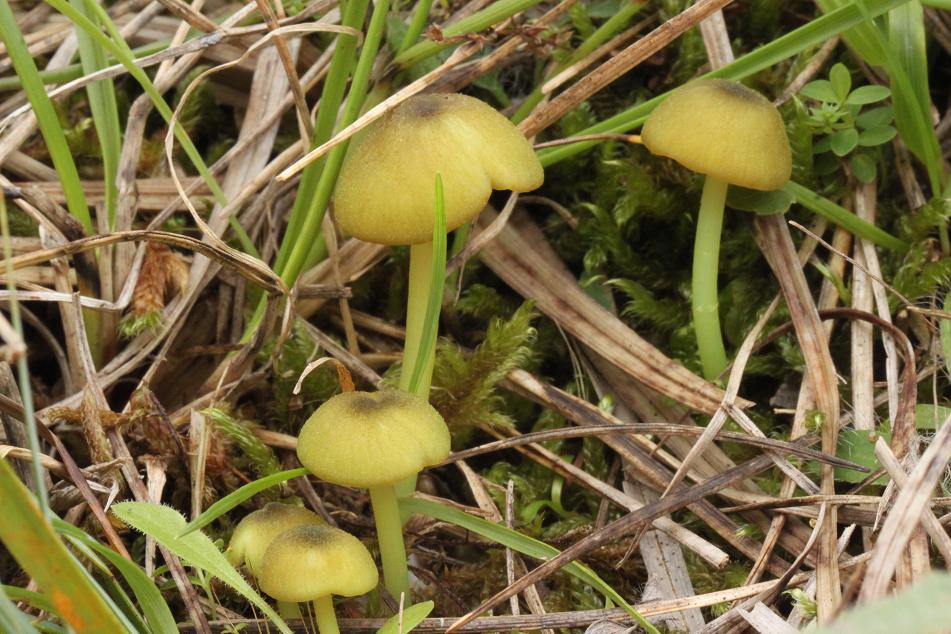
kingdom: Fungi
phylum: Basidiomycota
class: Agaricomycetes
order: Agaricales
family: Entolomataceae
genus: Entoloma
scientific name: Entoloma incanum
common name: grøngul rødblad
